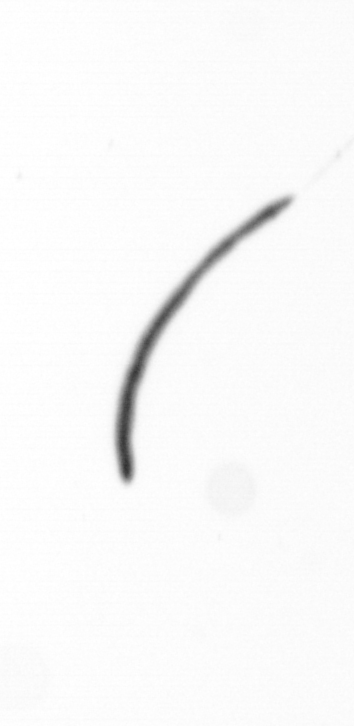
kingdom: Chromista
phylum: Ochrophyta
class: Bacillariophyceae
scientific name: Bacillariophyceae
